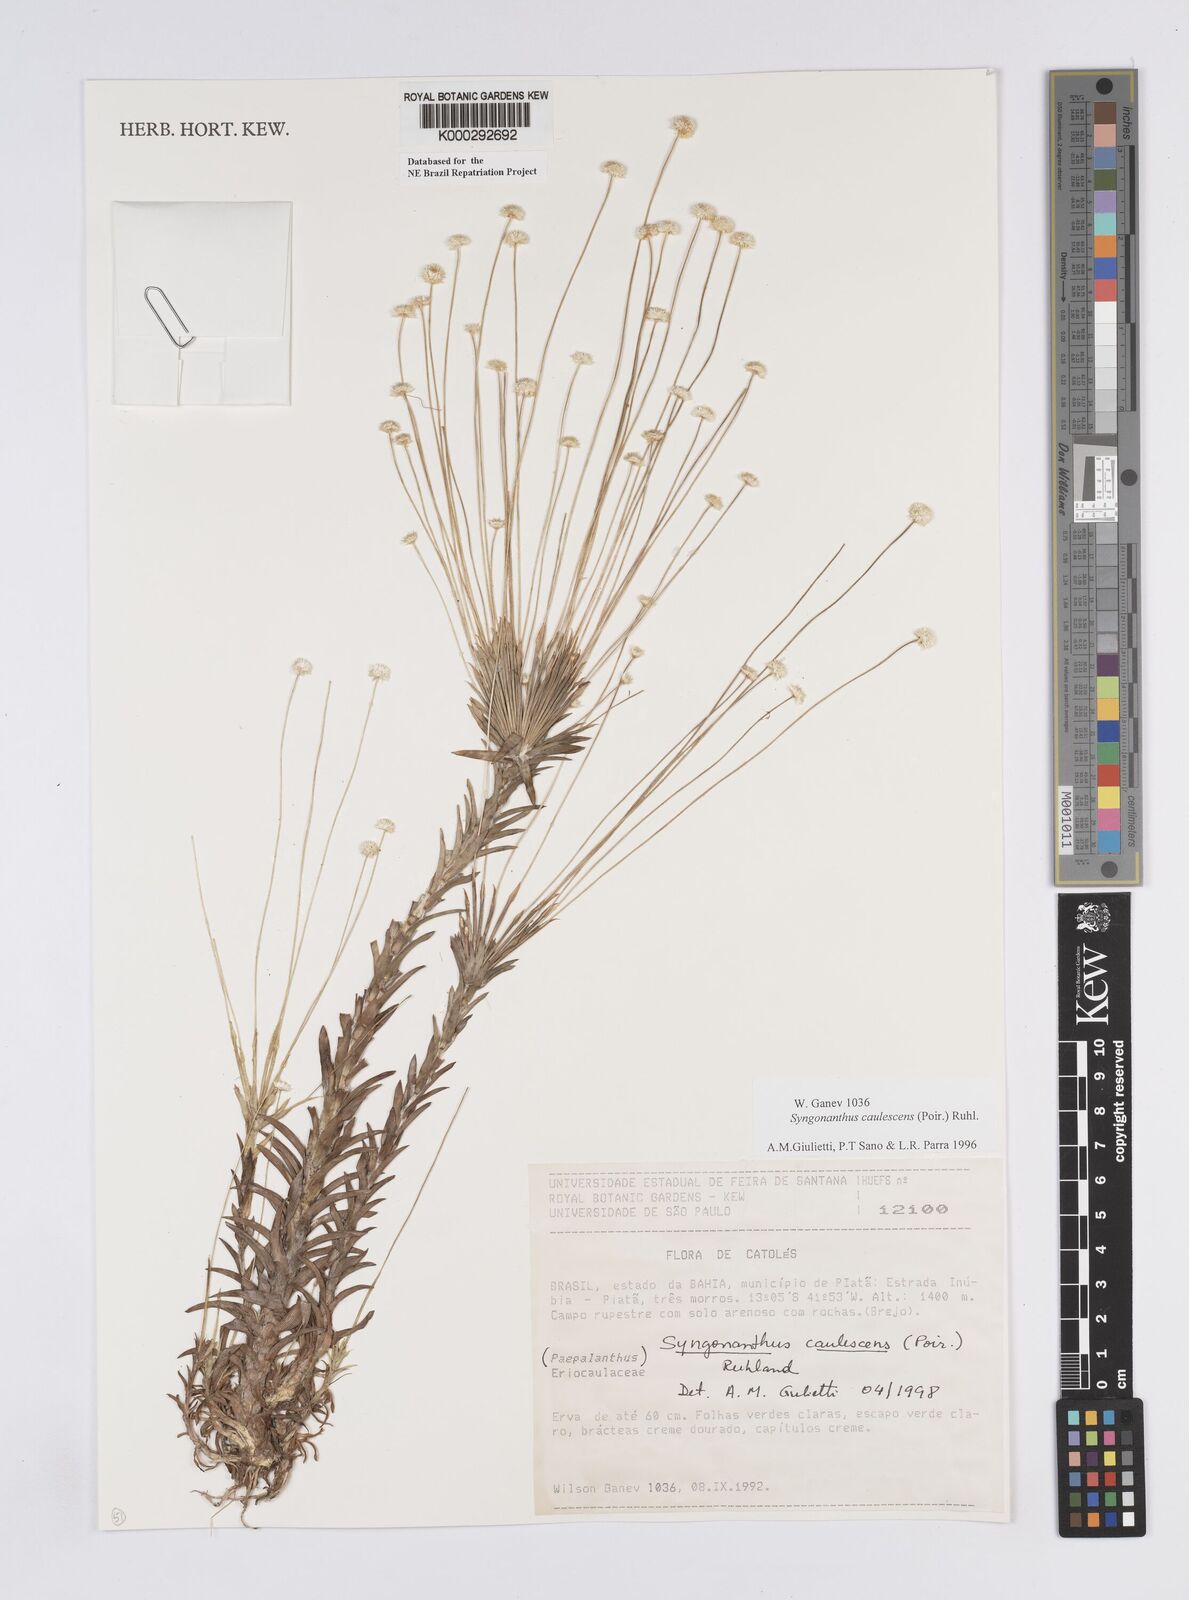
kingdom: Plantae
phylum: Tracheophyta
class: Liliopsida
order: Poales
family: Eriocaulaceae
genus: Syngonanthus
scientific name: Syngonanthus caulescens
